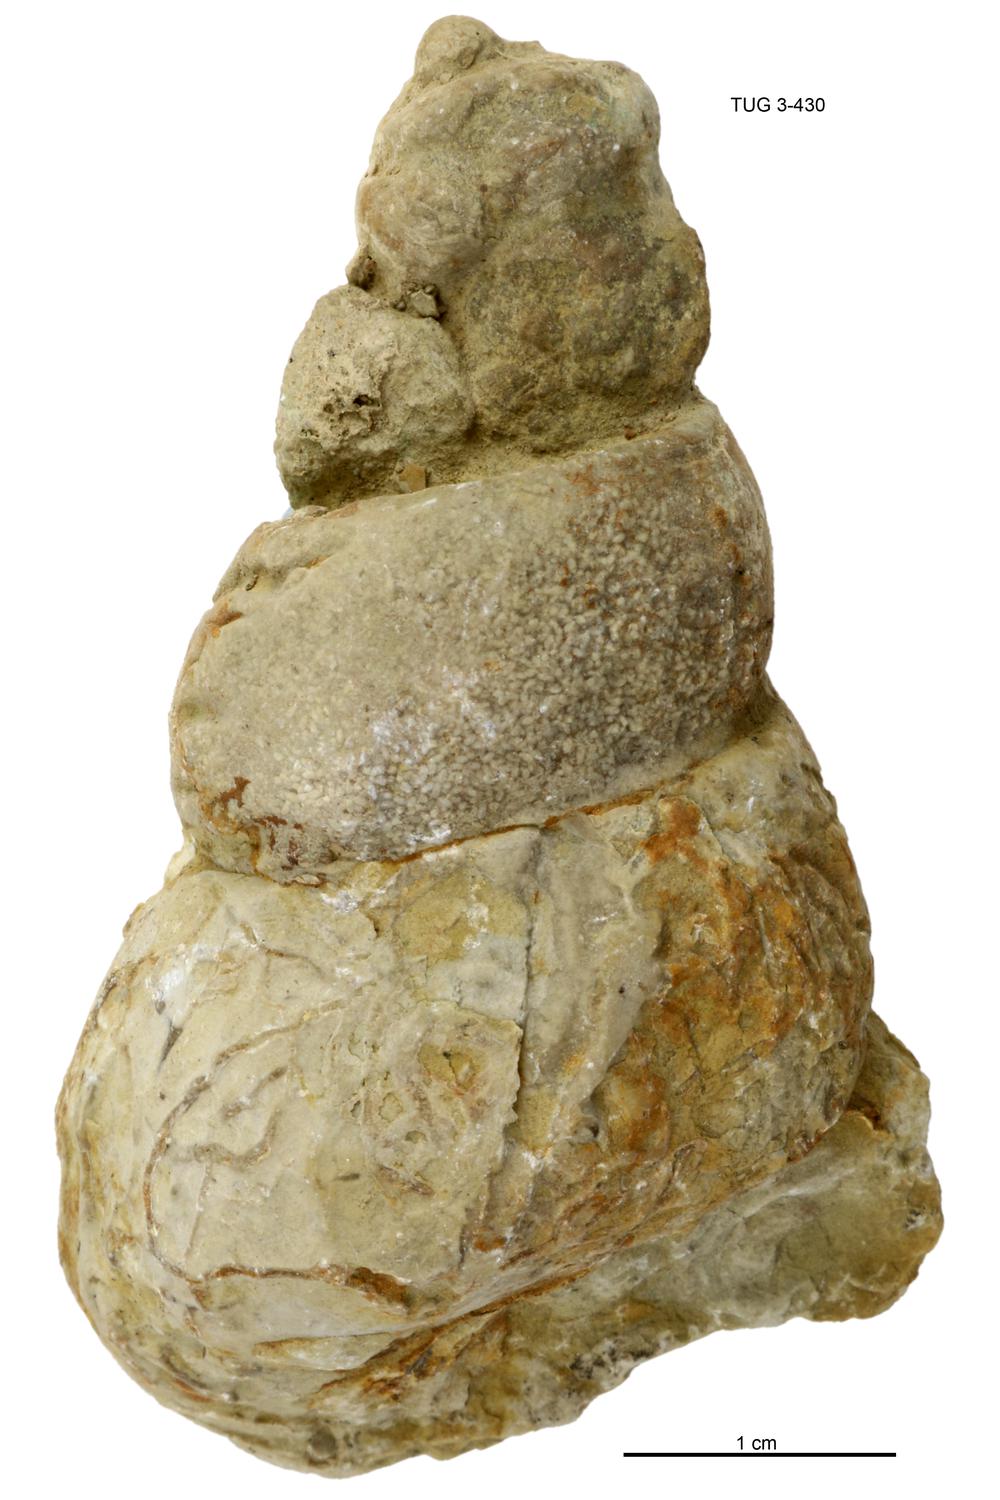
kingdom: Animalia
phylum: Mollusca
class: Gastropoda
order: Pleurotomariida
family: Murchisoniidae
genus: Murchisonia
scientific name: Murchisonia insignis
